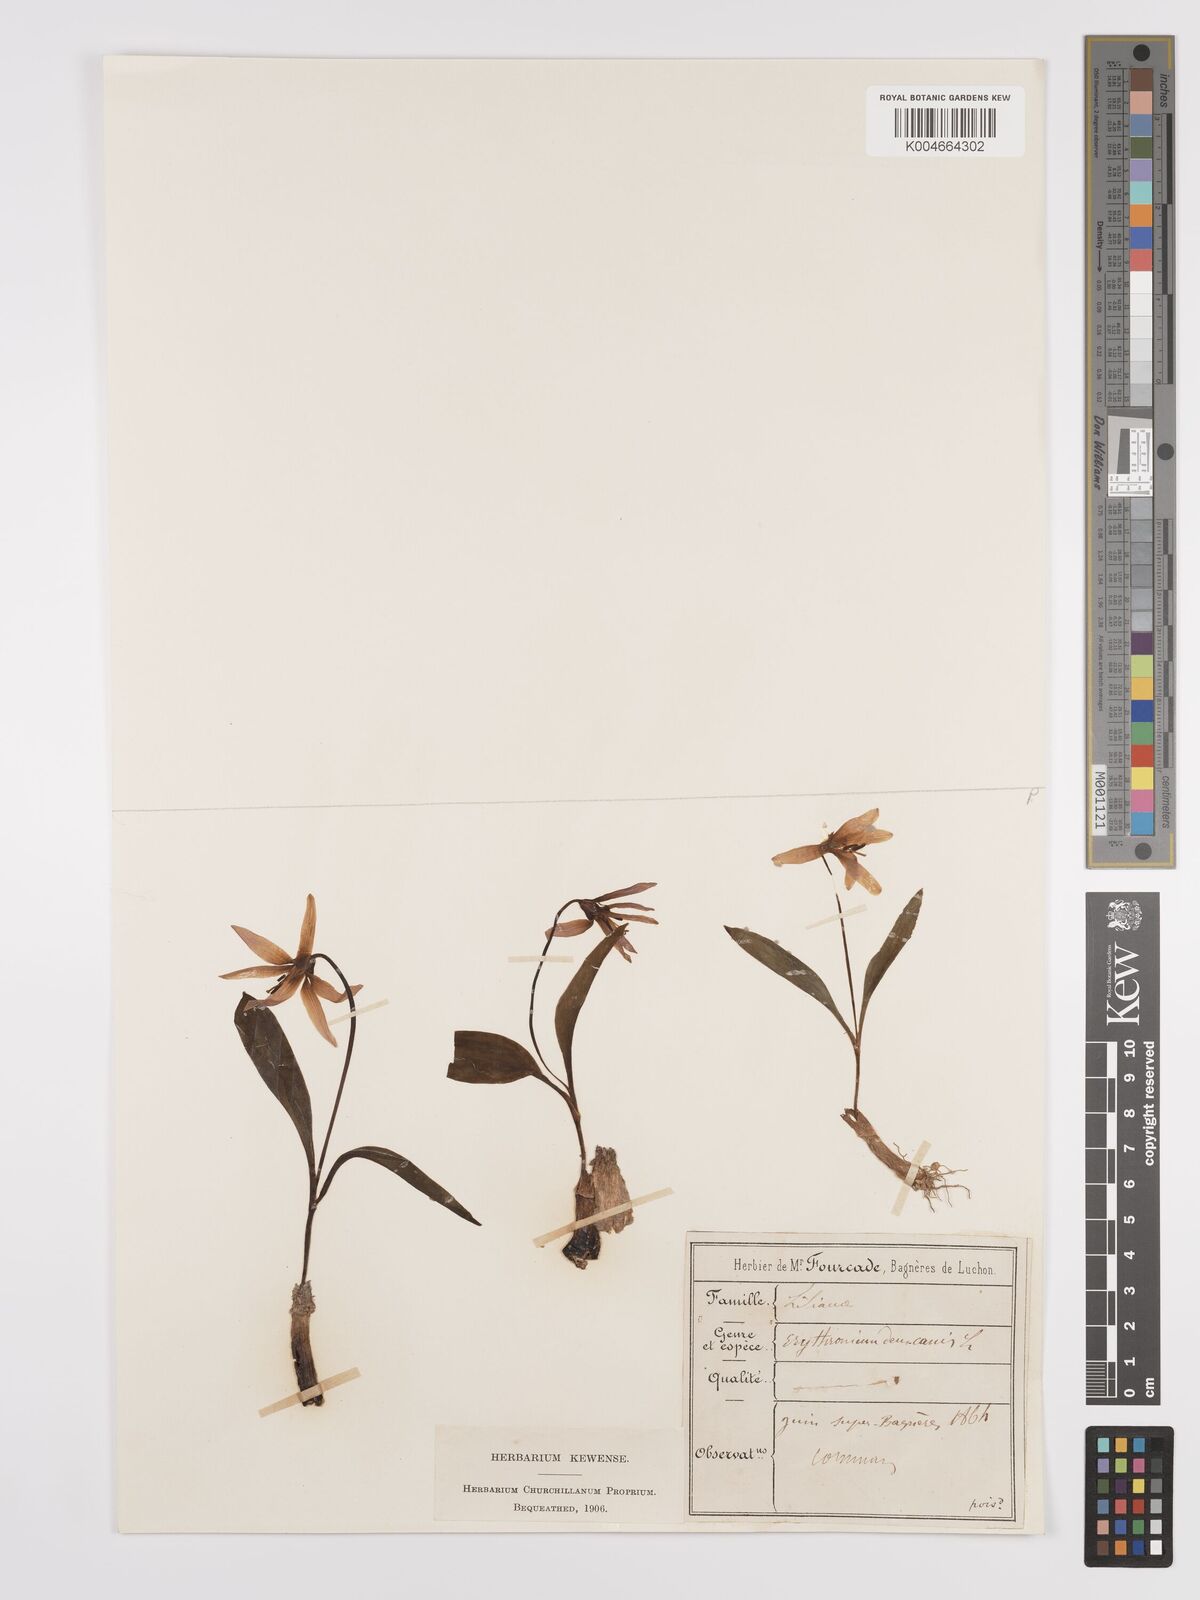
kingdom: Plantae
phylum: Tracheophyta
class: Liliopsida
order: Liliales
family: Liliaceae
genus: Erythronium
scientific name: Erythronium dens-canis
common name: Dog's-tooth-violet
